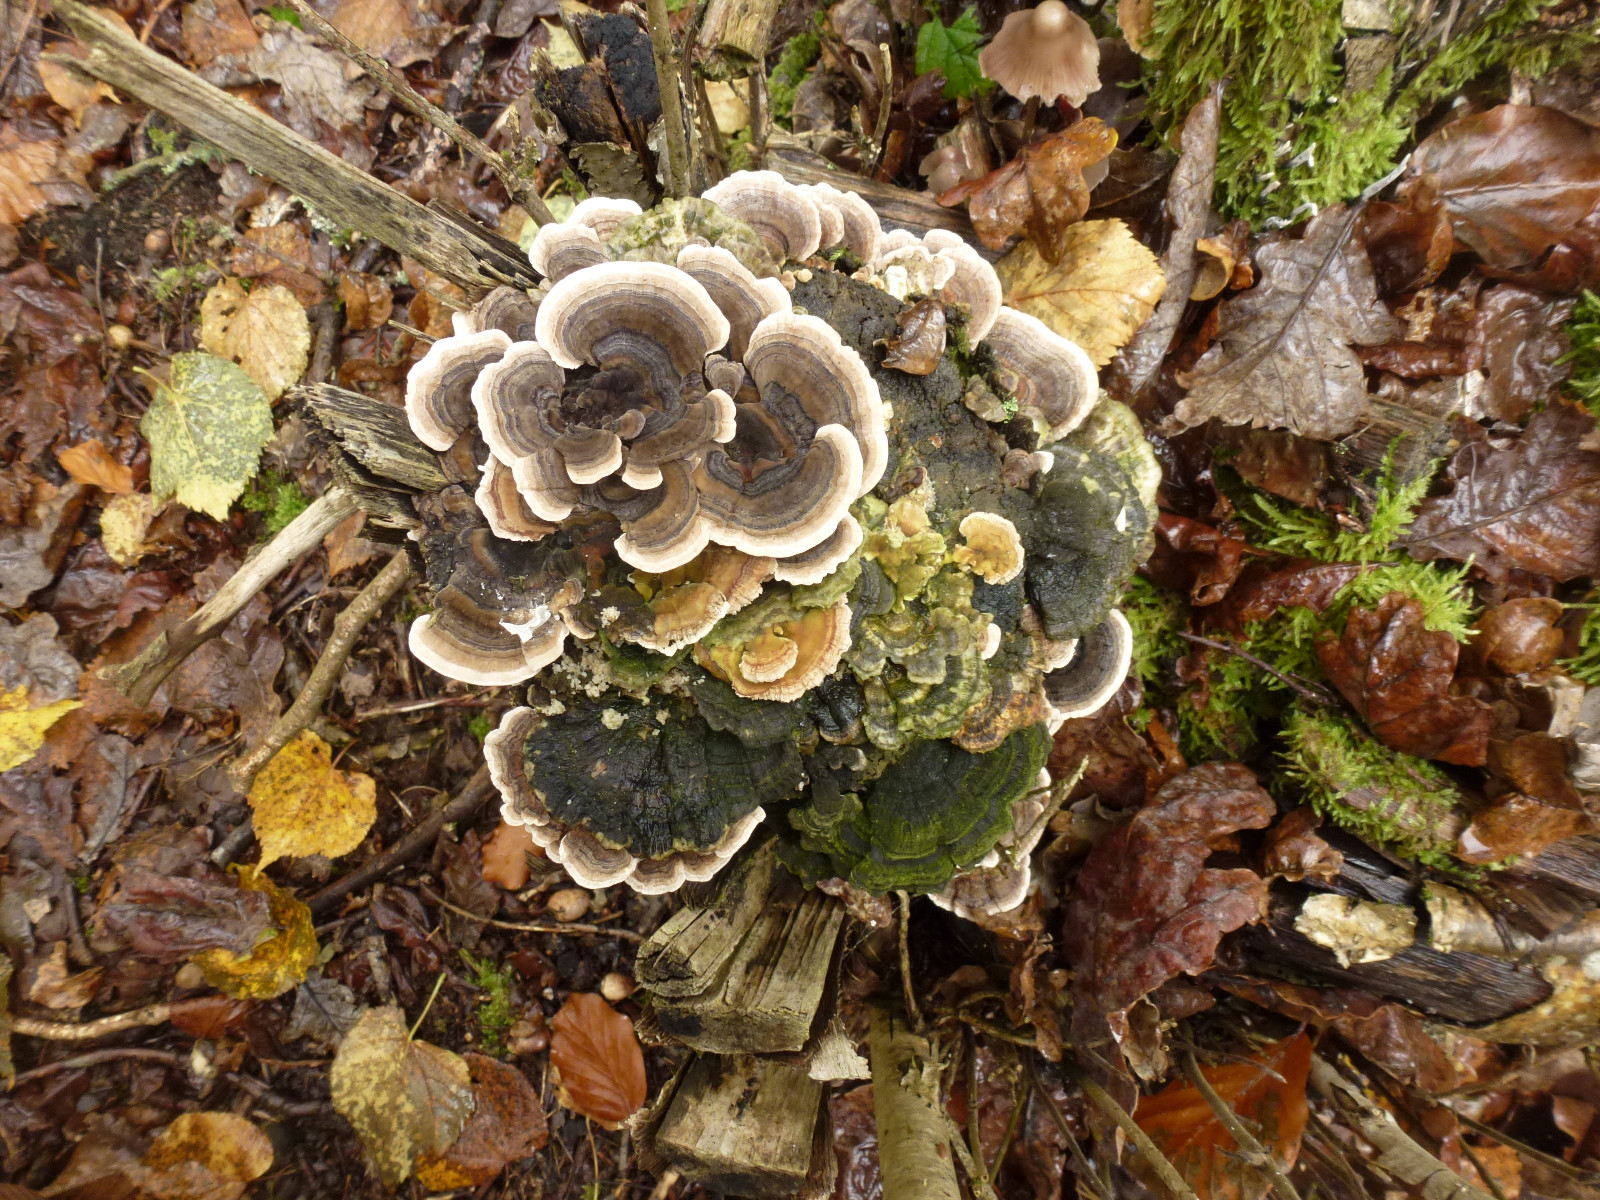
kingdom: Fungi
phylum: Basidiomycota
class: Agaricomycetes
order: Polyporales
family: Polyporaceae
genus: Trametes
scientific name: Trametes versicolor
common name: broget læderporesvamp
